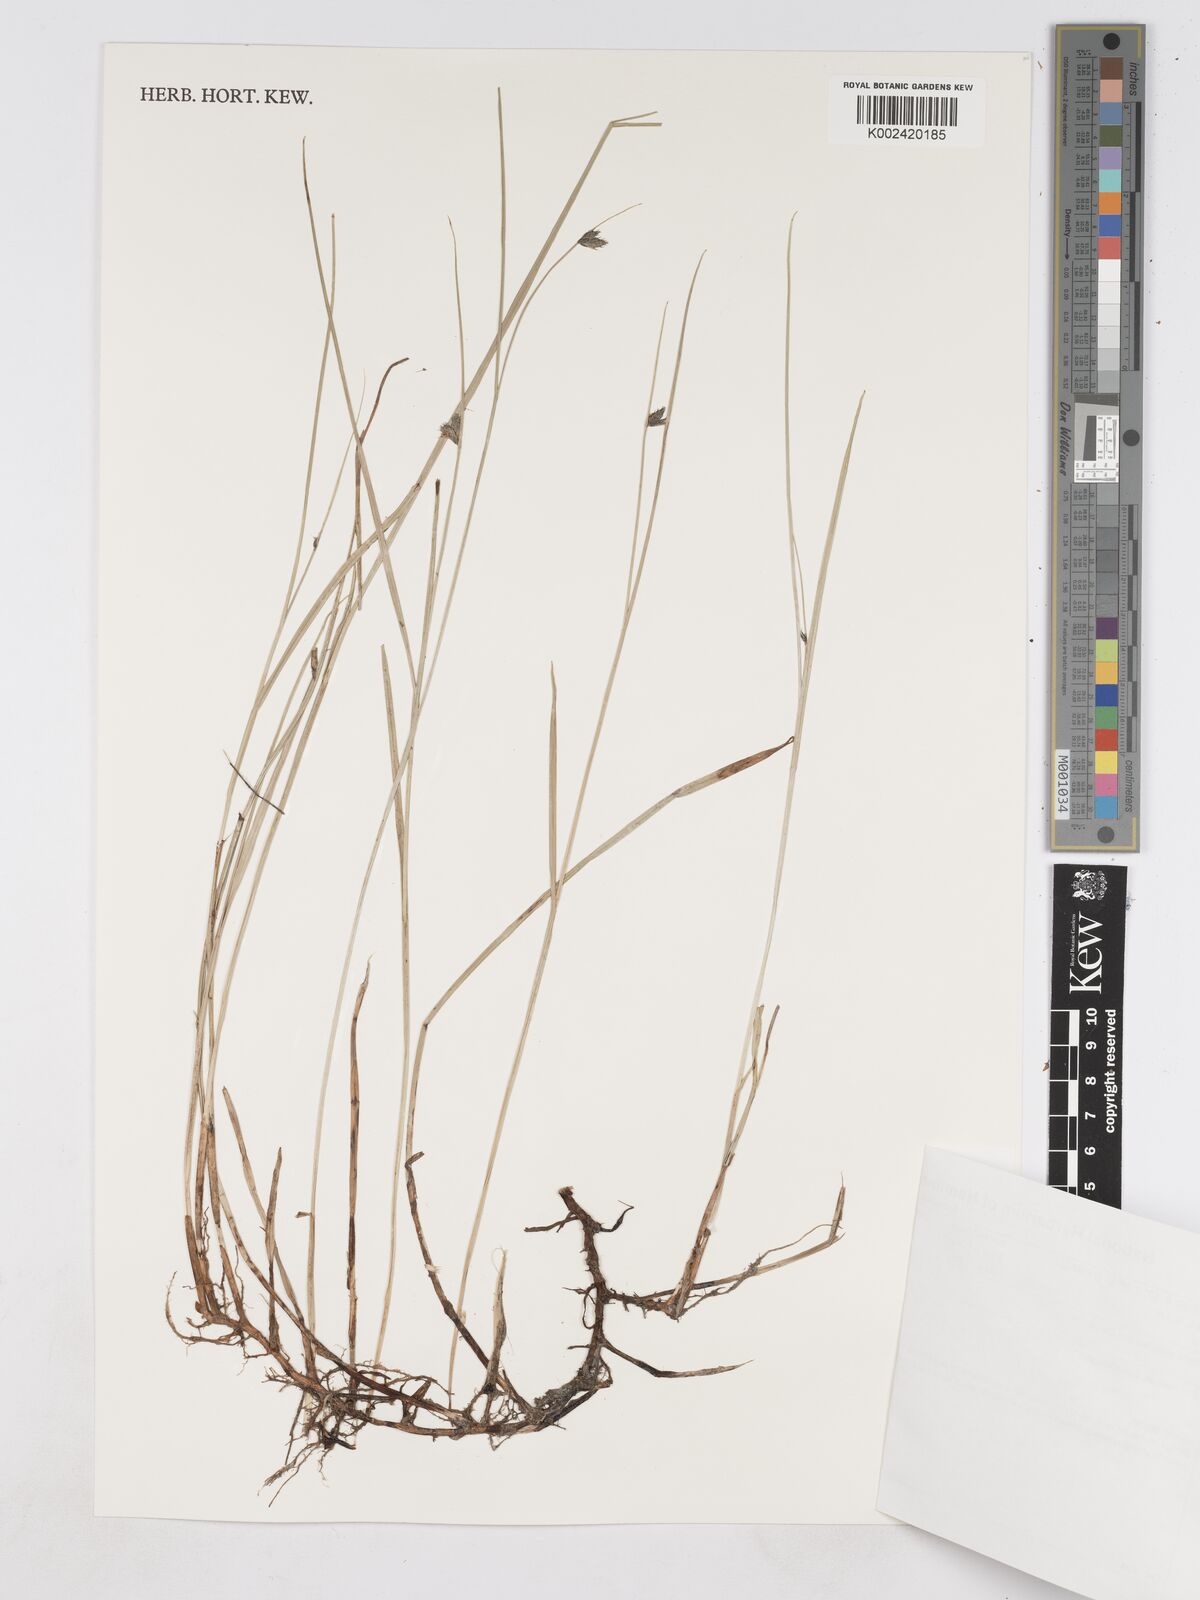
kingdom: Plantae
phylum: Tracheophyta
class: Liliopsida
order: Poales
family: Cyperaceae
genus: Fuirena
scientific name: Fuirena coerulescens
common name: Blue umbrella-sedge
